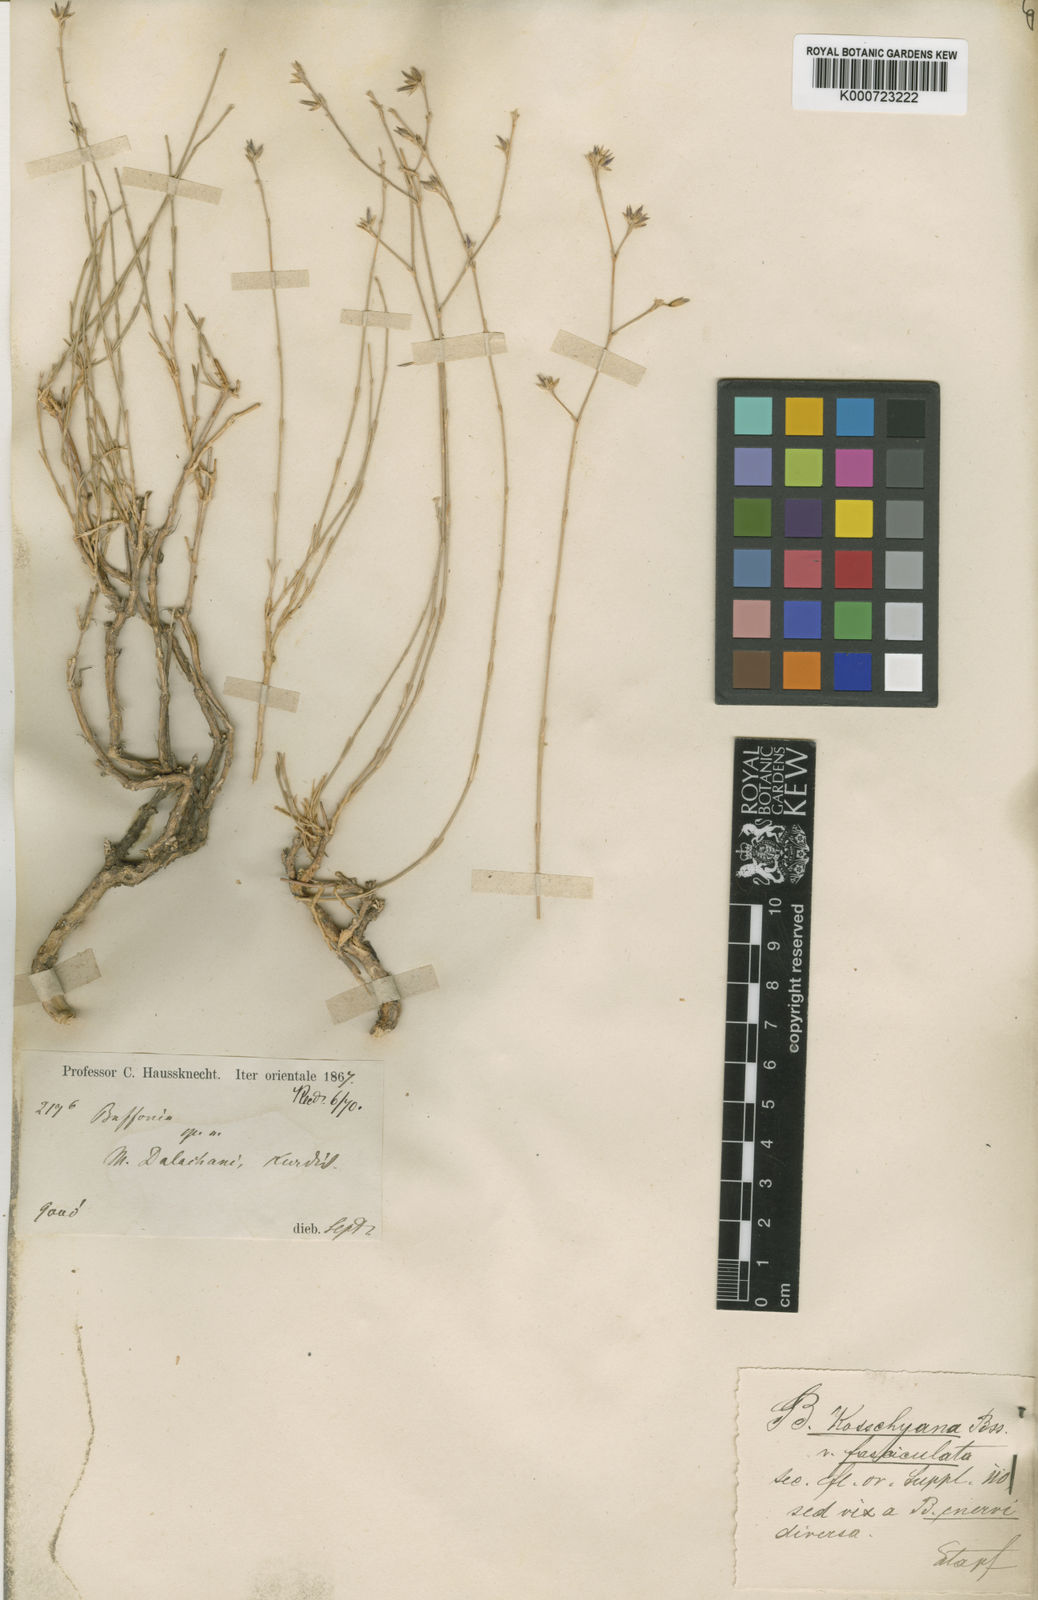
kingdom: Plantae
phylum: Tracheophyta
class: Magnoliopsida
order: Caryophyllales
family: Caryophyllaceae
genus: Bufonia
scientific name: Bufonia kotschyana
